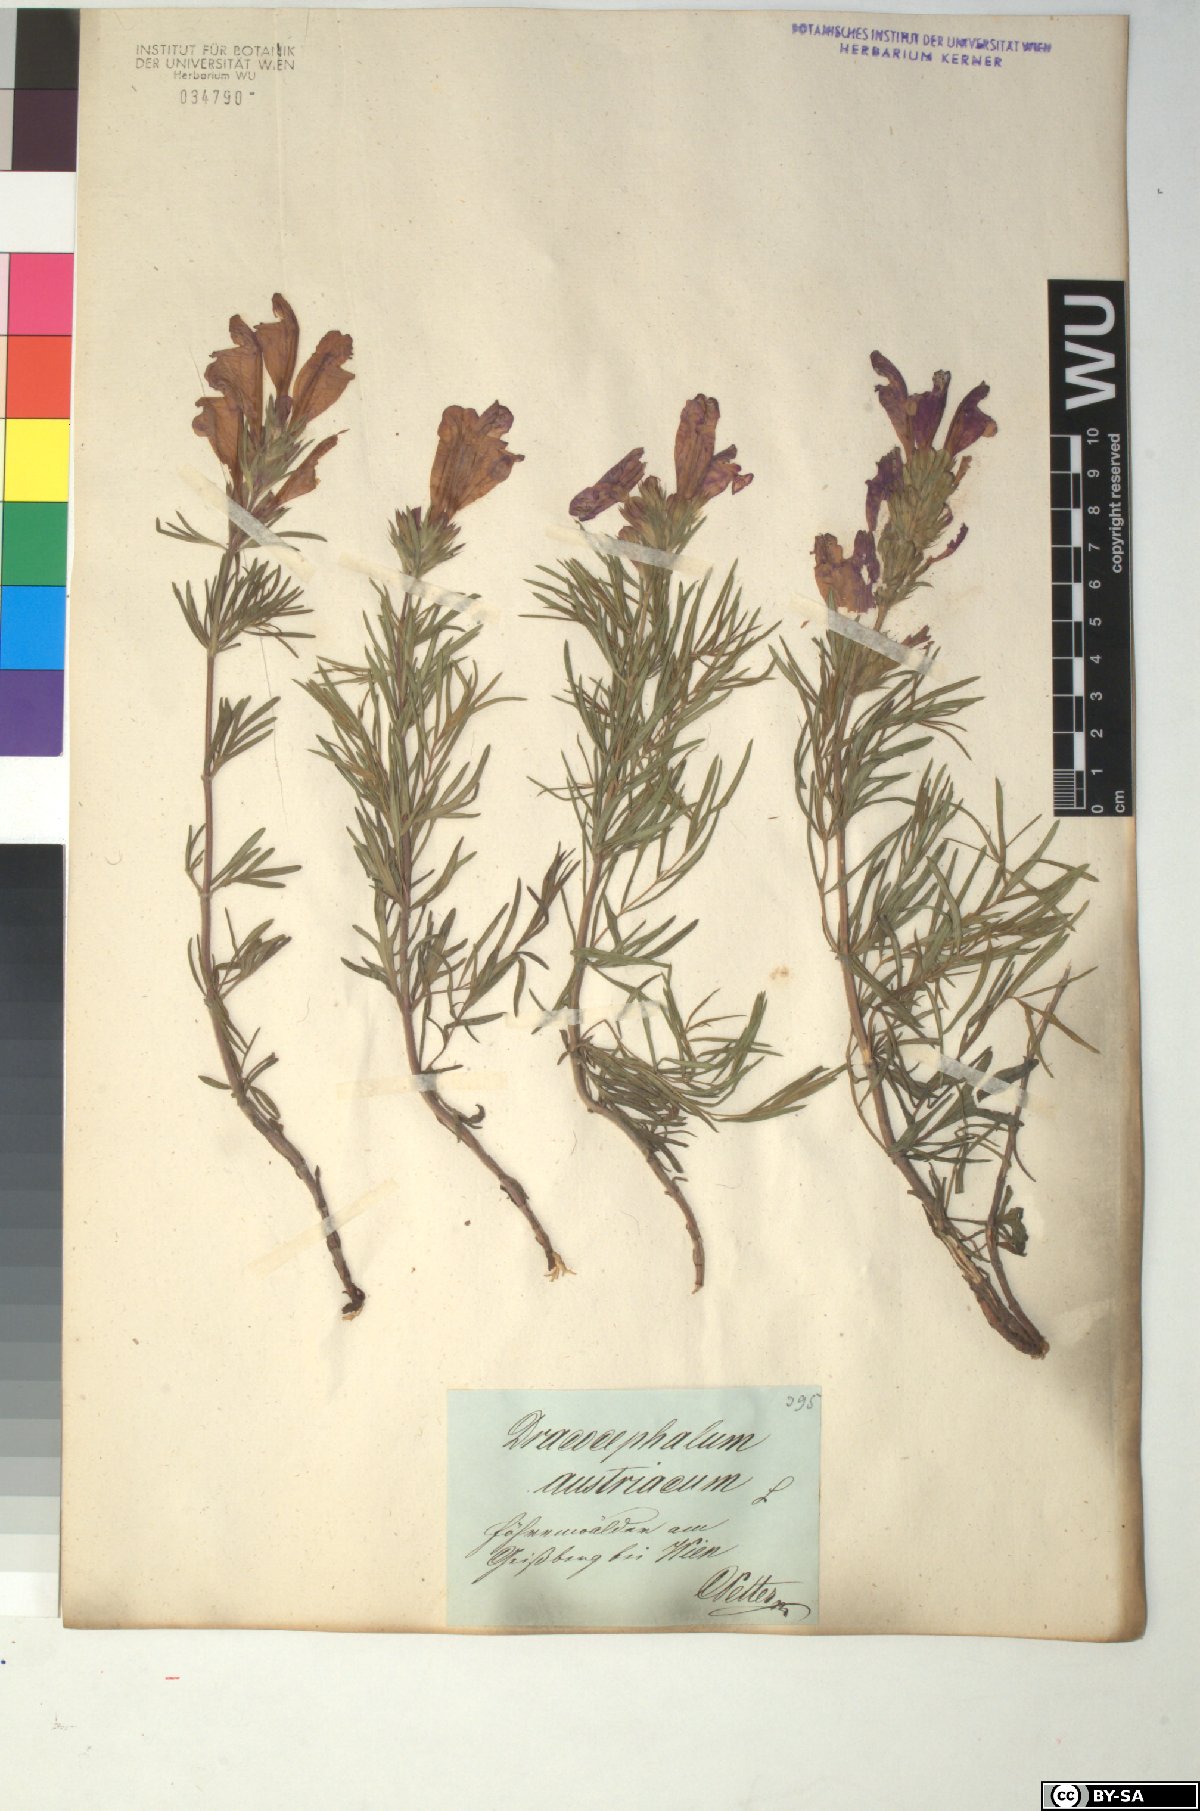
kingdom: Plantae
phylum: Tracheophyta
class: Magnoliopsida
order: Lamiales
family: Lamiaceae
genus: Dracocephalum
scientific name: Dracocephalum austriacum
